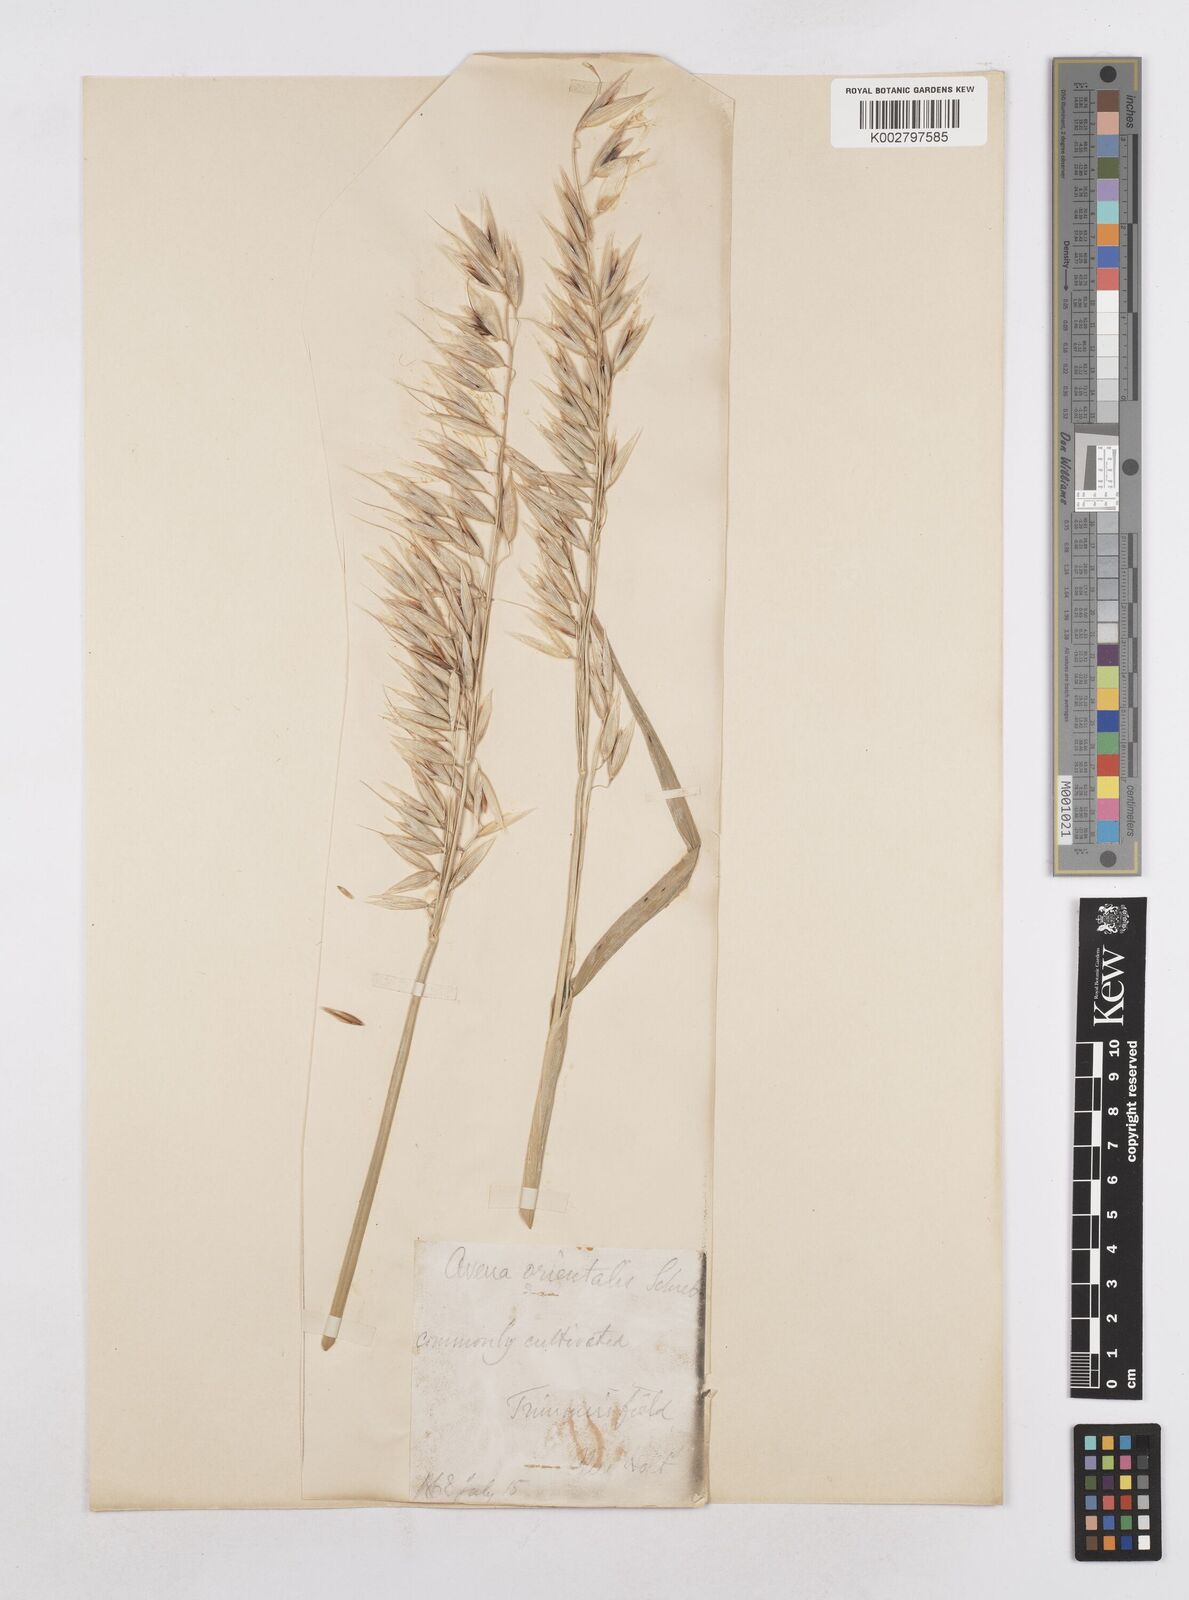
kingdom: Plantae
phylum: Tracheophyta
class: Liliopsida
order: Poales
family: Poaceae
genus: Avena
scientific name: Avena sativa
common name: Oat
